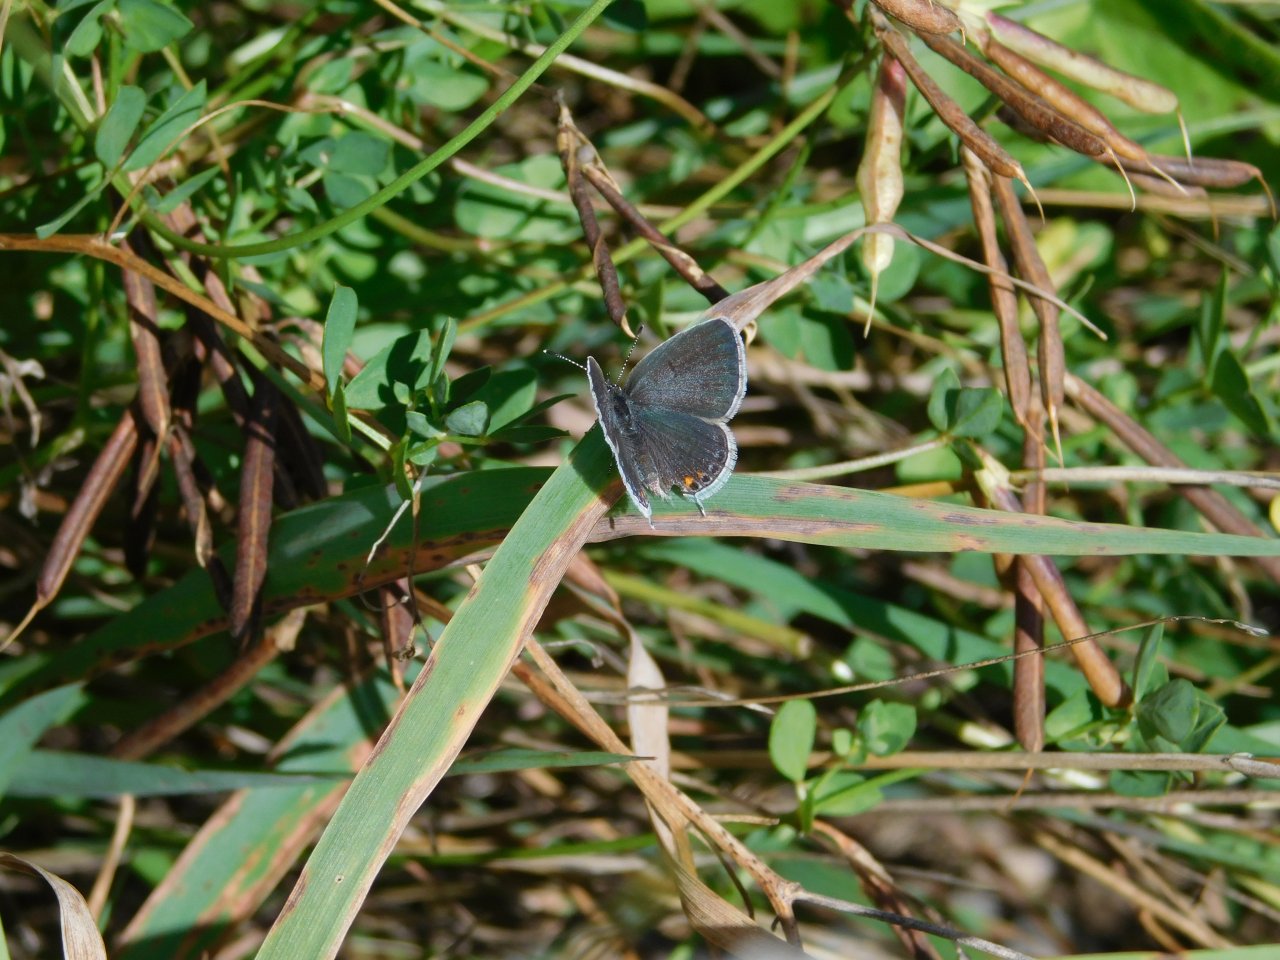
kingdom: Animalia
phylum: Arthropoda
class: Insecta
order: Lepidoptera
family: Lycaenidae
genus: Elkalyce
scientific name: Elkalyce comyntas
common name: Eastern Tailed-Blue
